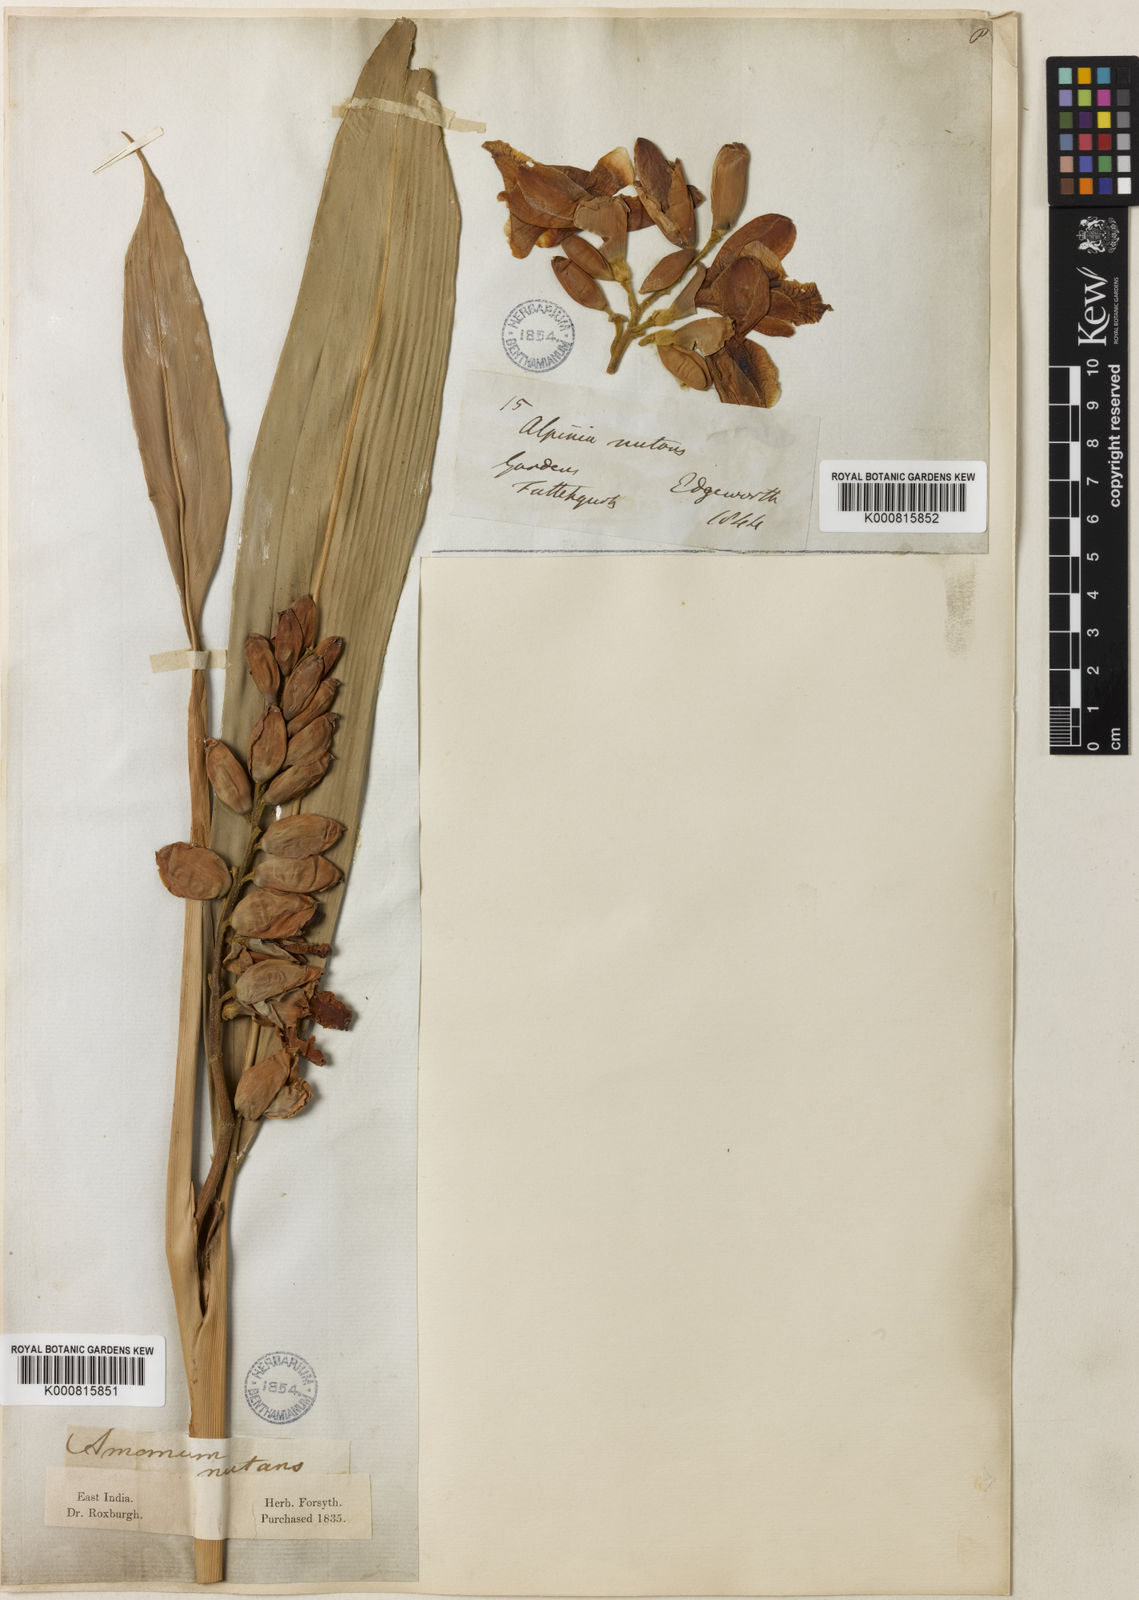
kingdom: Plantae
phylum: Tracheophyta
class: Liliopsida
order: Zingiberales
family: Zingiberaceae
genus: Alpinia
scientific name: Alpinia zerumbet
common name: Shellplant
